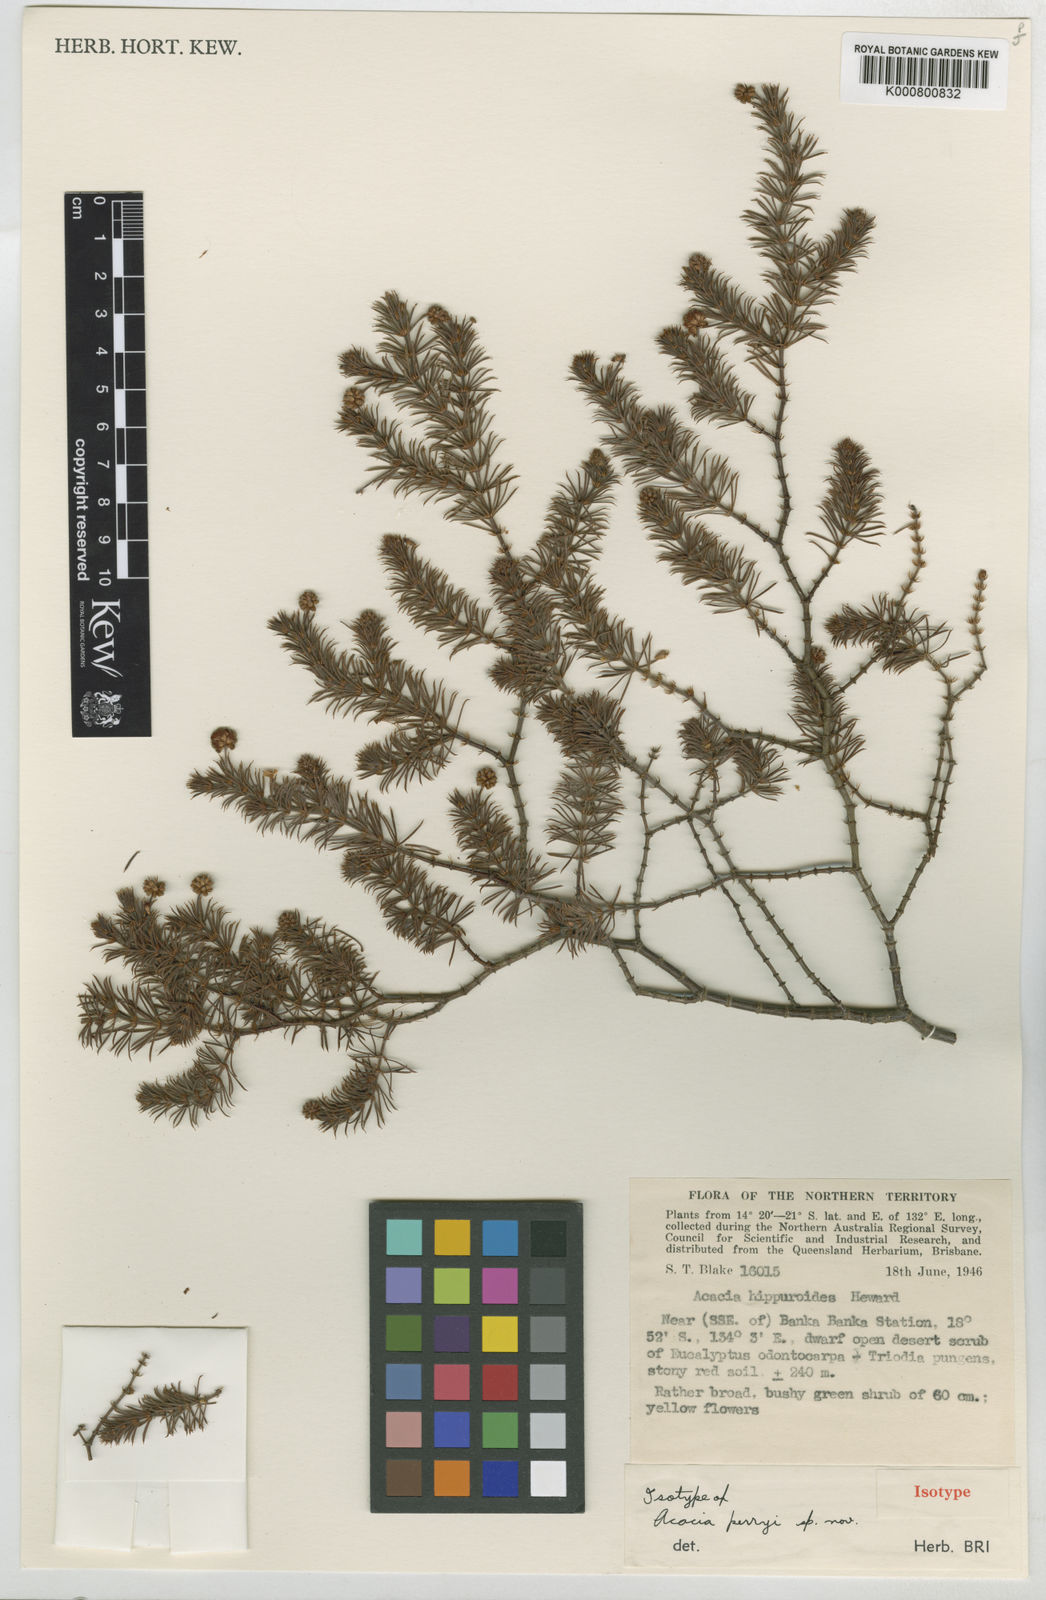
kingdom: Plantae
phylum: Tracheophyta
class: Magnoliopsida
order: Fabales
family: Fabaceae
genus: Acacia
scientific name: Acacia perryi
